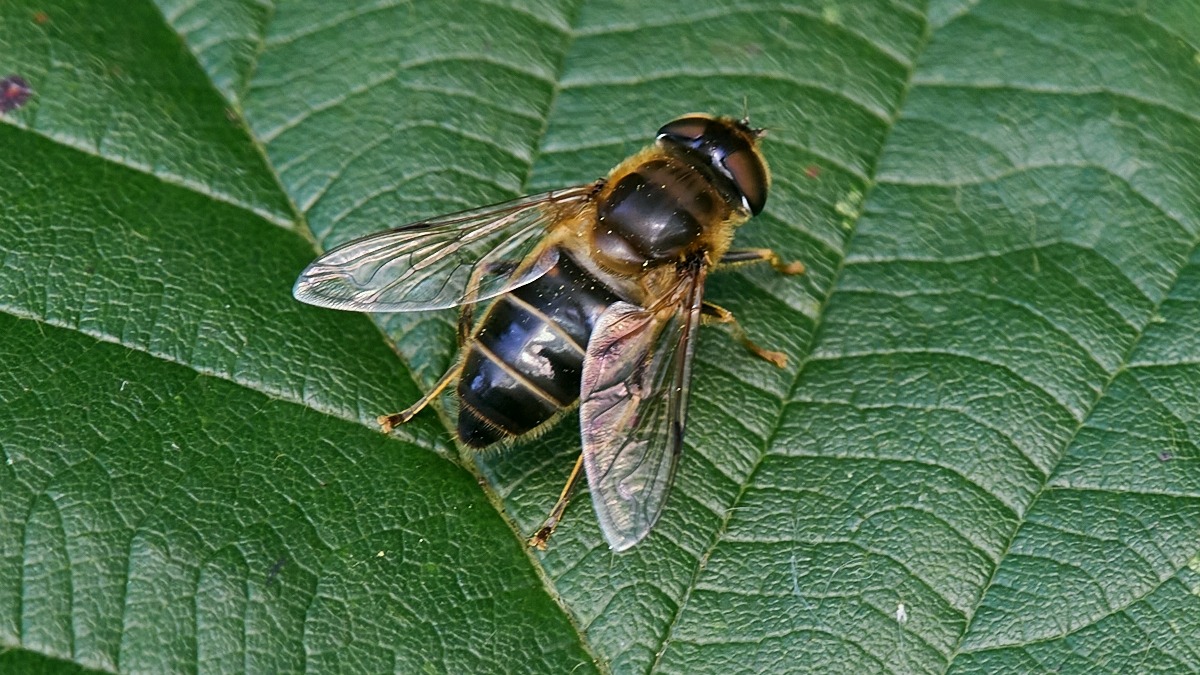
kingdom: Animalia
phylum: Arthropoda
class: Insecta
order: Diptera
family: Syrphidae
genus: Eristalis
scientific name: Eristalis pertinax
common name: Gulfodet dyndflue
